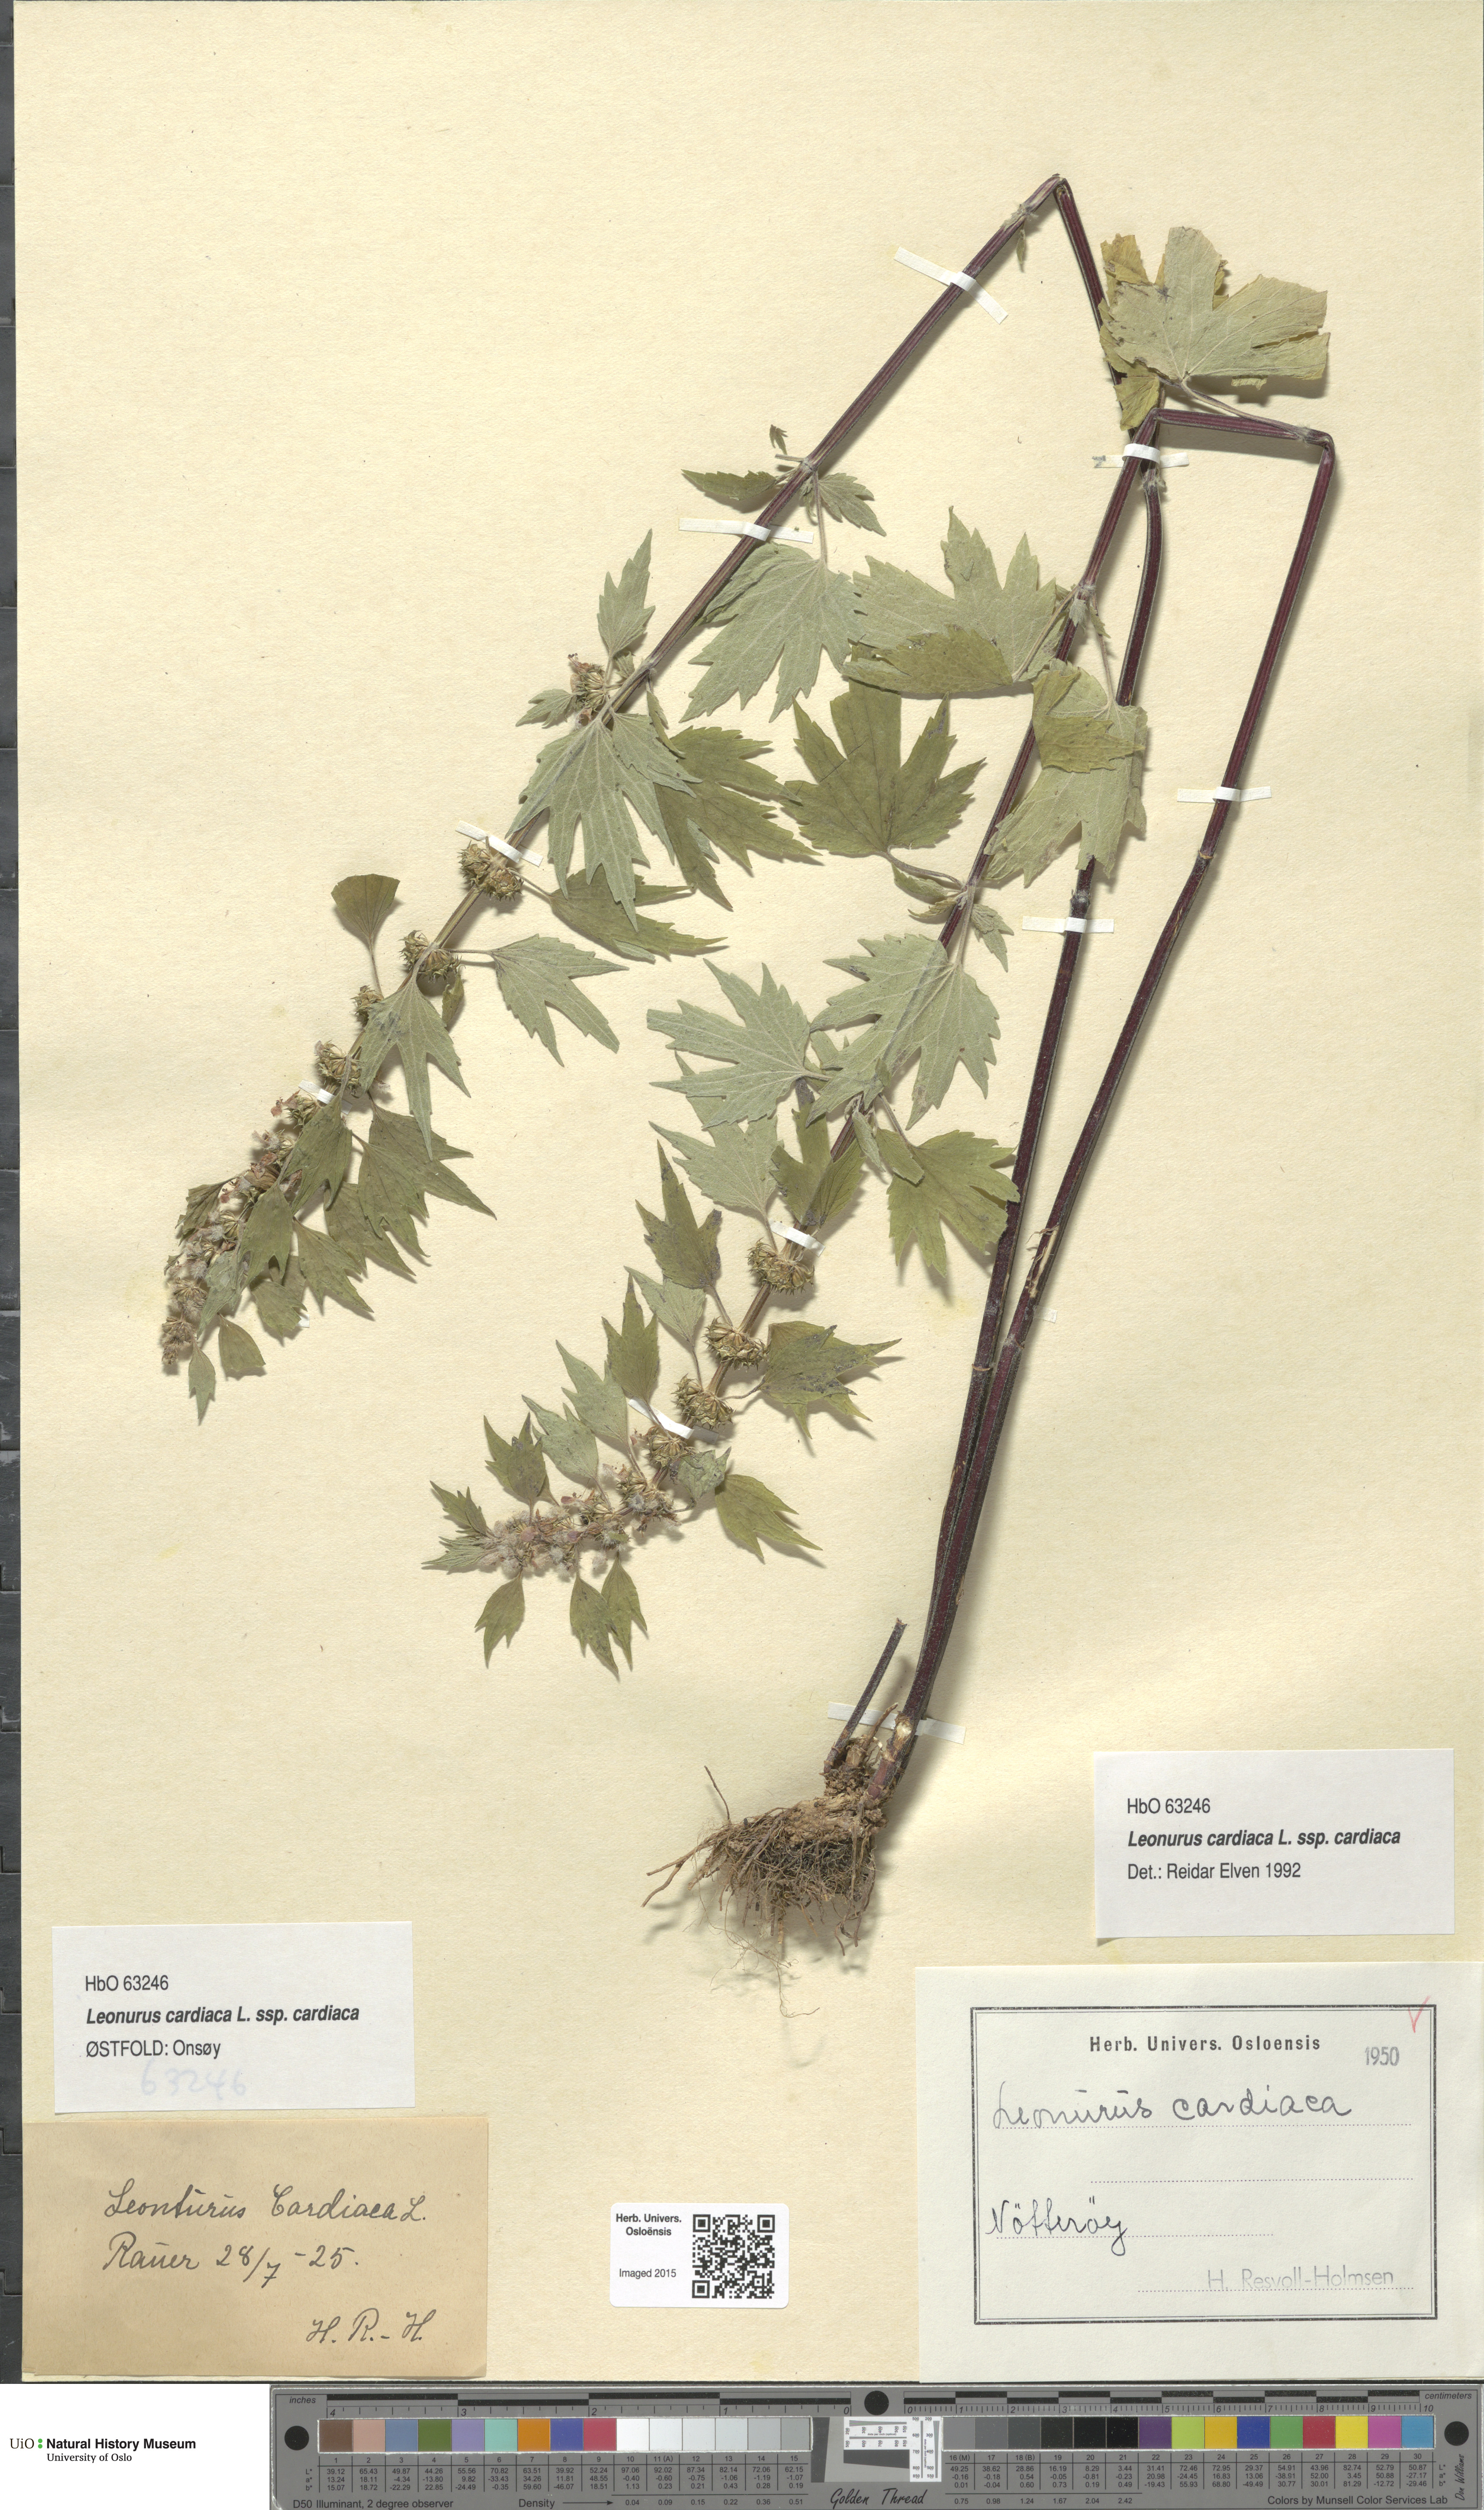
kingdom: Plantae
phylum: Tracheophyta
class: Magnoliopsida
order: Lamiales
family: Lamiaceae
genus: Leonurus
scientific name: Leonurus cardiaca
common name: Motherwort
